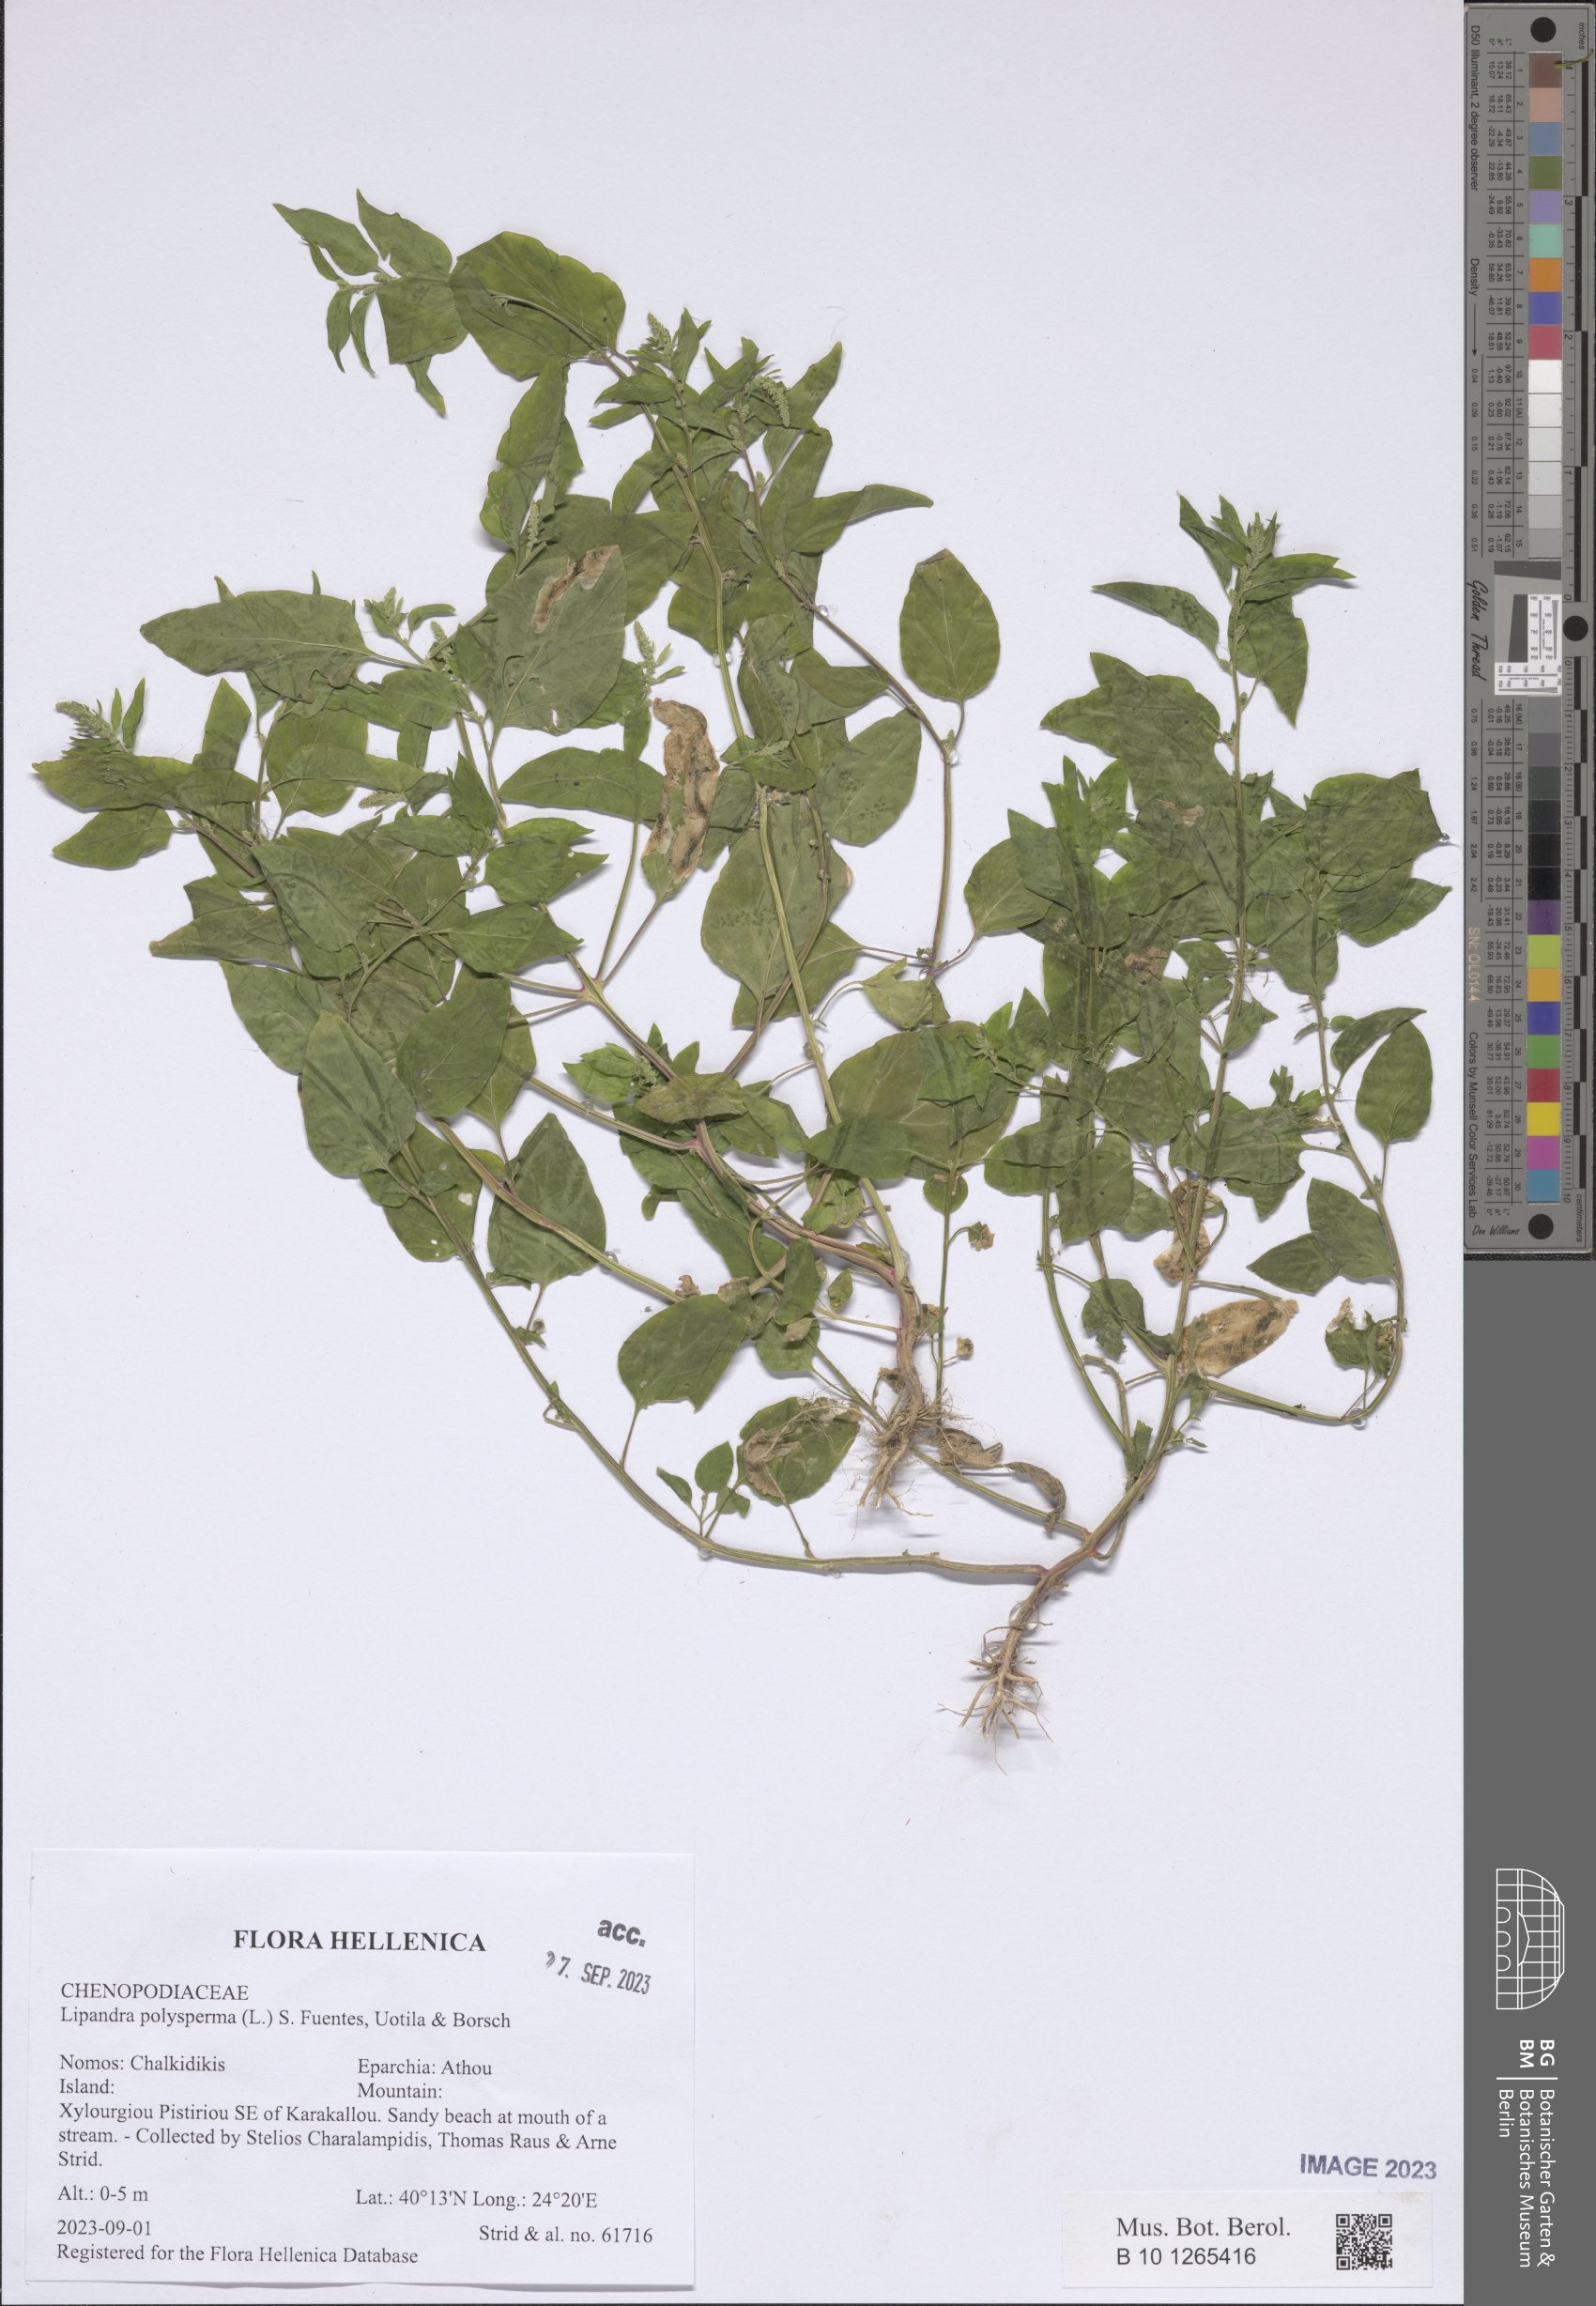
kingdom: Plantae
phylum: Tracheophyta
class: Magnoliopsida
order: Caryophyllales
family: Amaranthaceae
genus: Lipandra
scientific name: Lipandra polysperma
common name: Many-seed goosefoot
